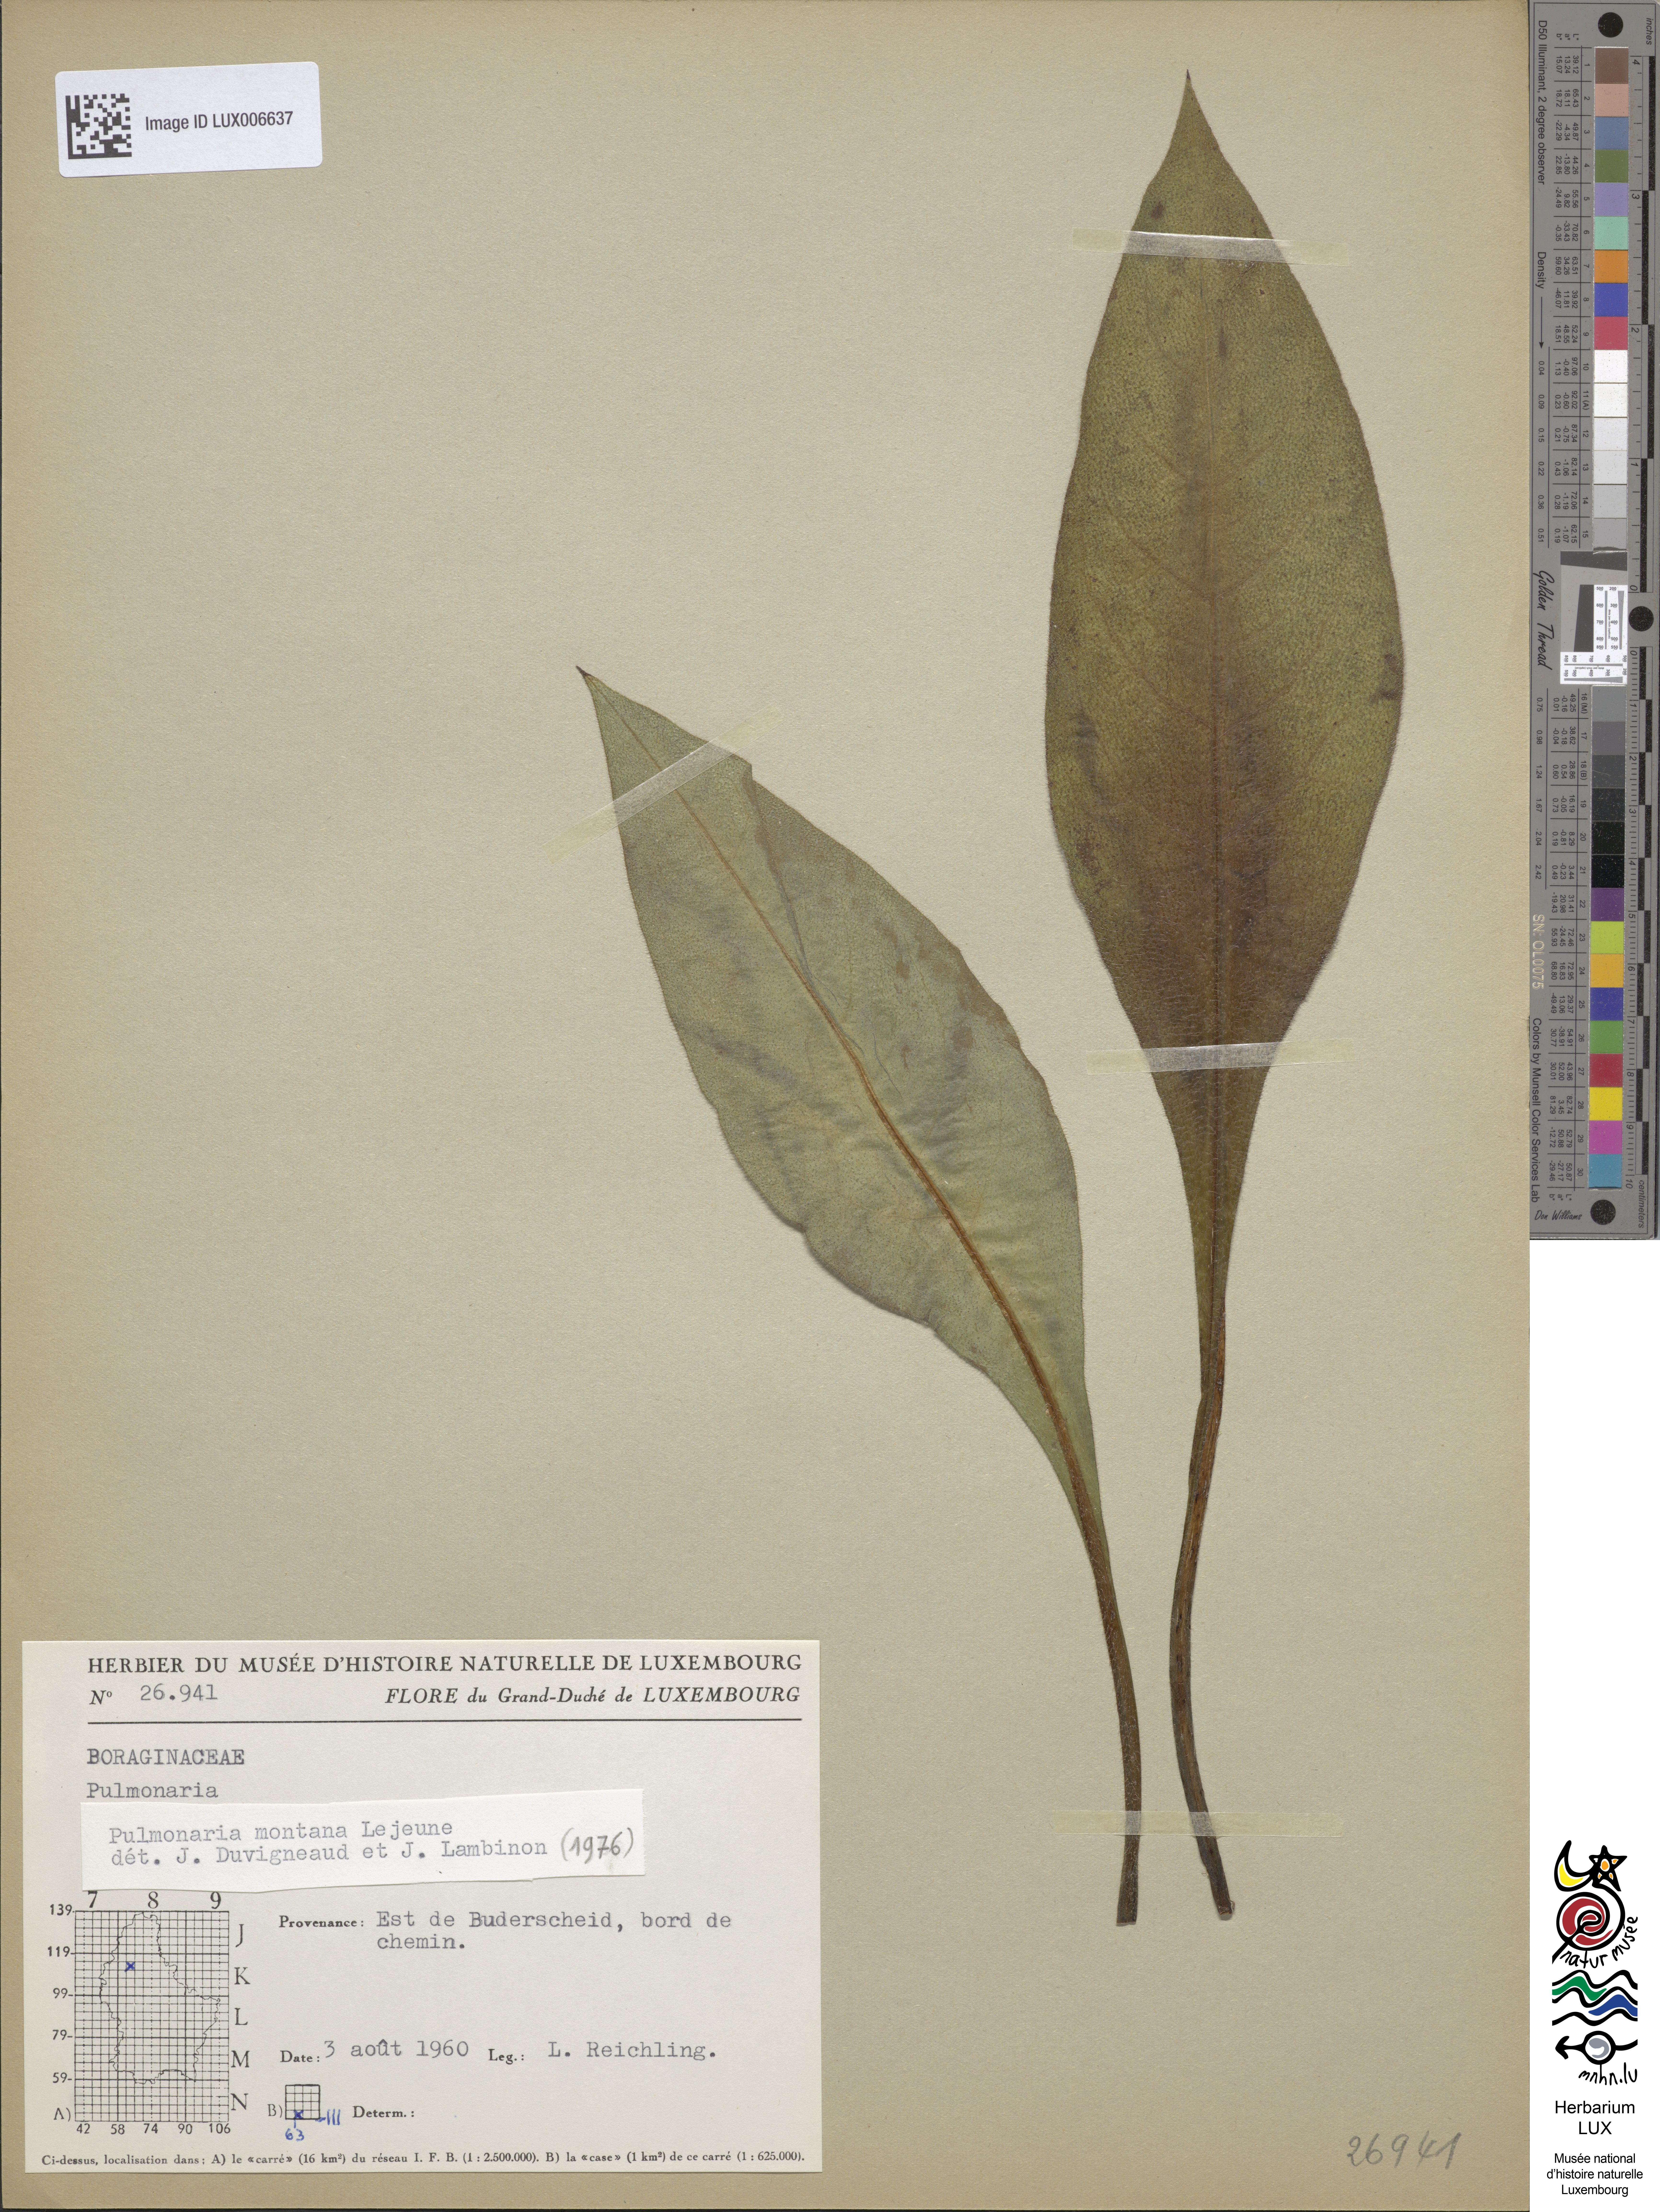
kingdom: Plantae
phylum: Tracheophyta
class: Magnoliopsida
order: Boraginales
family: Boraginaceae
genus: Pulmonaria
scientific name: Pulmonaria montana
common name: Mountain lungwort
